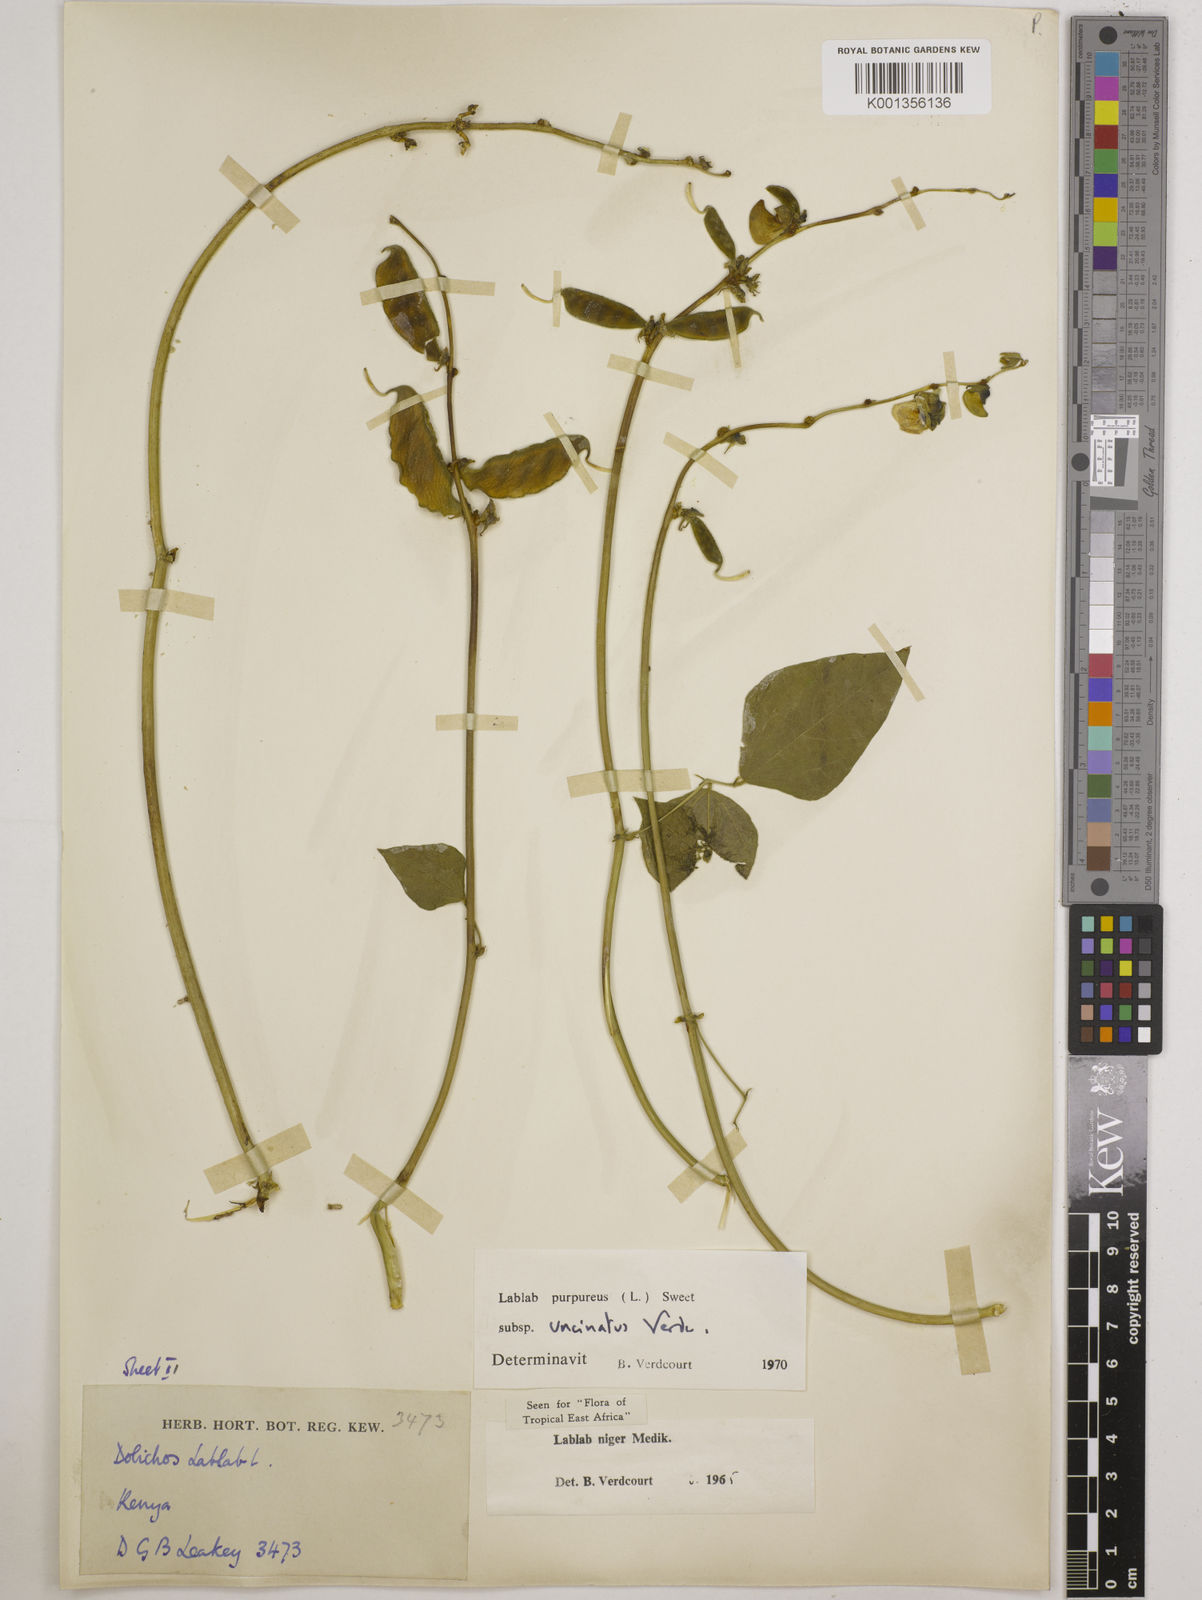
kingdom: Plantae
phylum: Tracheophyta
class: Magnoliopsida
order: Fabales
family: Fabaceae
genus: Lablab
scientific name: Lablab purpureus
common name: Lablab-bean
